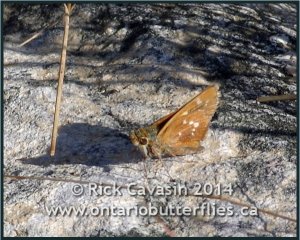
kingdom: Animalia
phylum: Arthropoda
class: Insecta
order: Lepidoptera
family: Hesperiidae
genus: Hesperia
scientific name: Hesperia leonardus
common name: Leonard's Skipper
